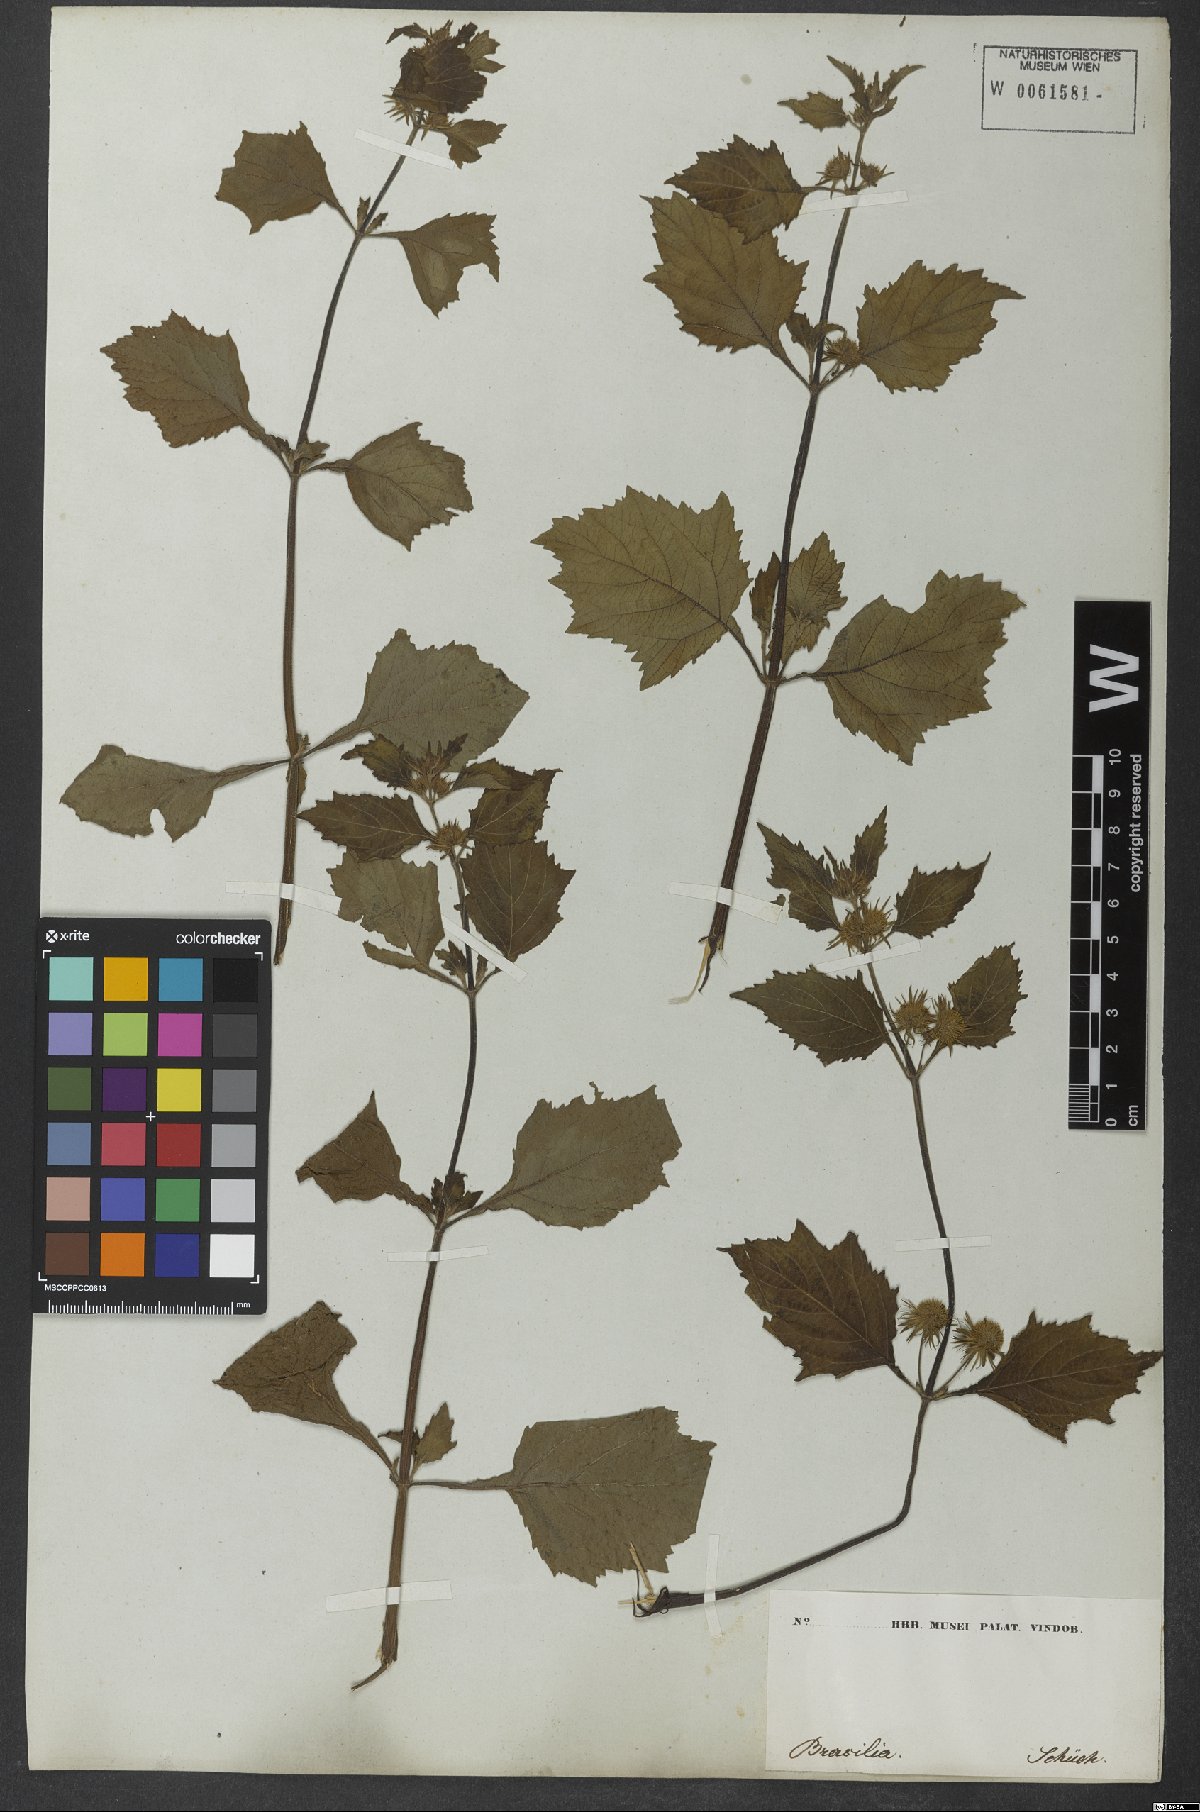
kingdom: Plantae
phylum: Tracheophyta
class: Magnoliopsida
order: Lamiales
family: Lamiaceae
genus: Hyptis
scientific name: Hyptis lanceolata
